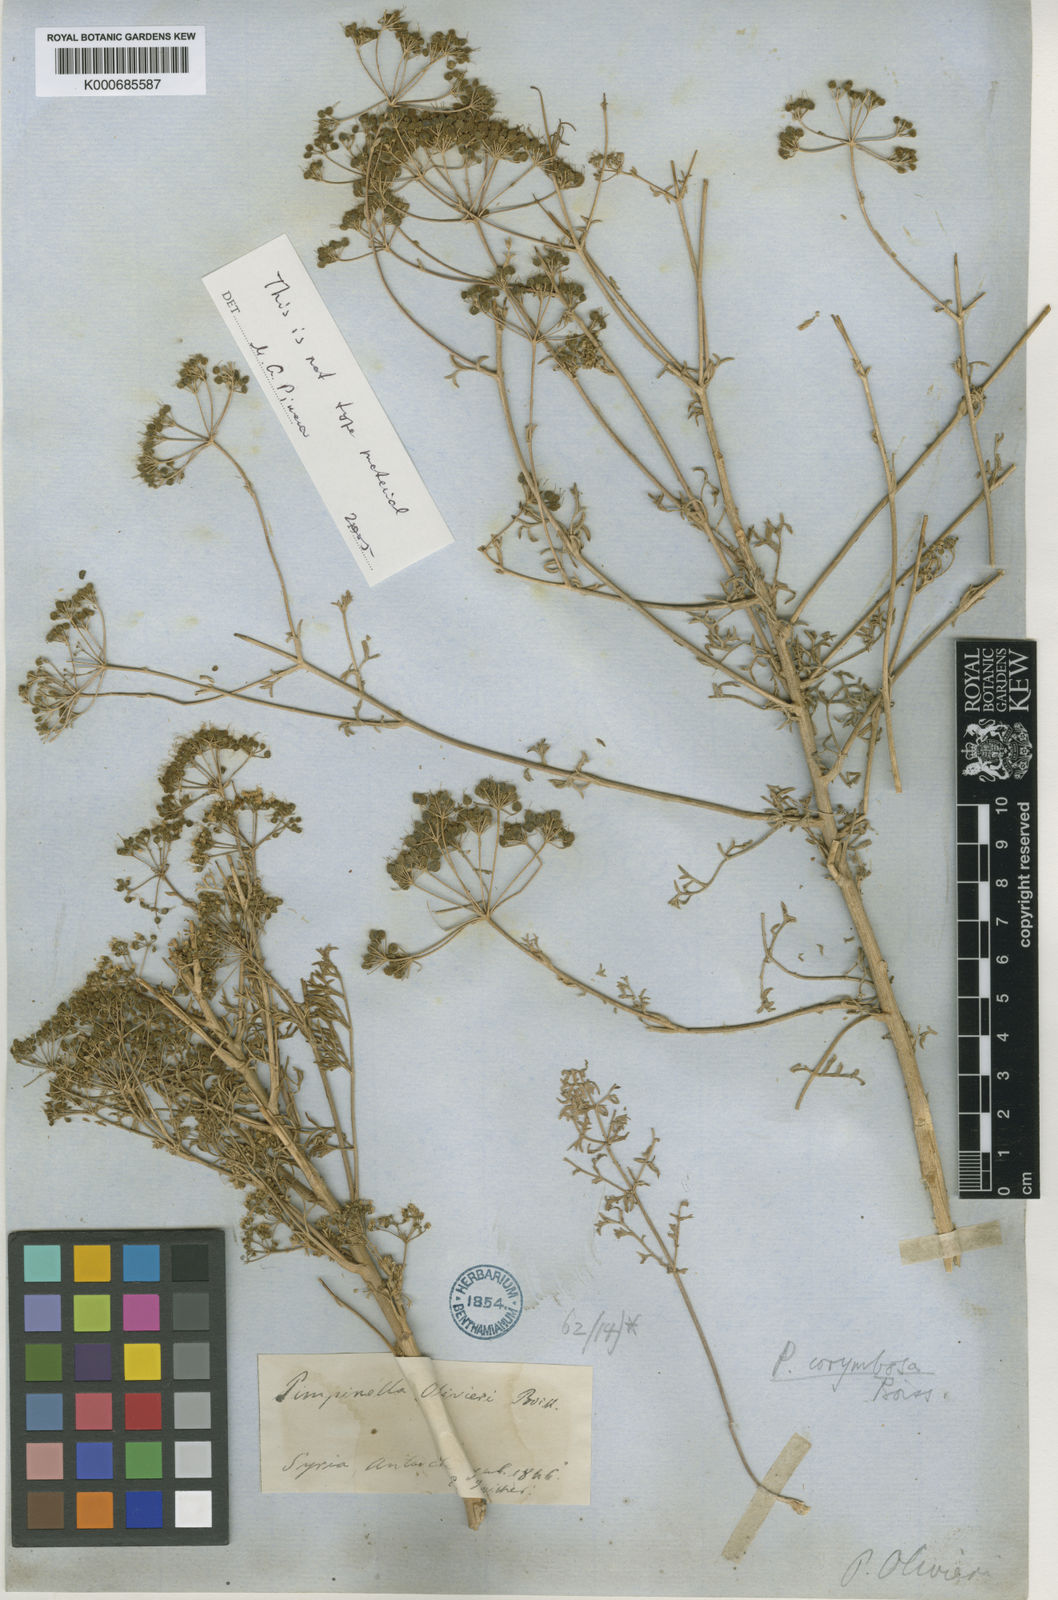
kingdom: Plantae
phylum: Tracheophyta
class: Magnoliopsida
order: Apiales
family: Apiaceae
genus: Pimpinella
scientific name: Pimpinella corymbosa
